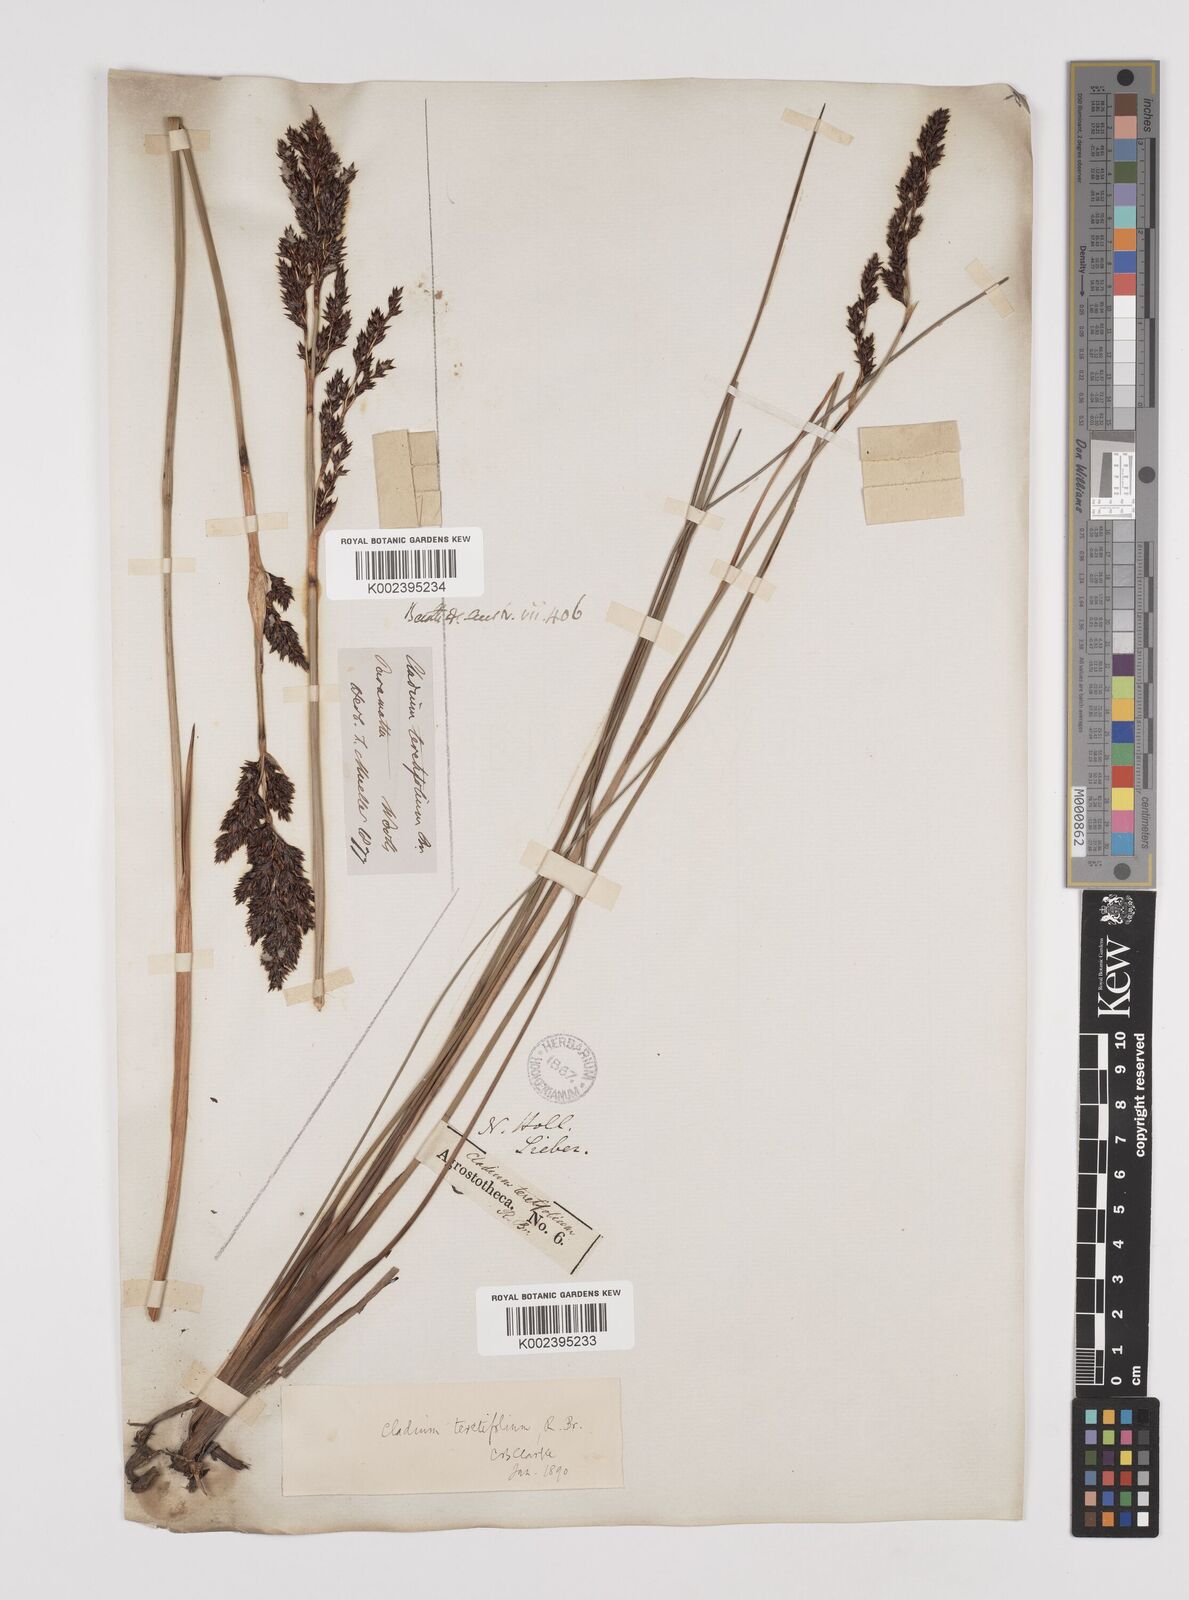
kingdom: Plantae
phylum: Tracheophyta
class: Liliopsida
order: Poales
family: Cyperaceae
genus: Machaerina
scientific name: Machaerina teretifolia
